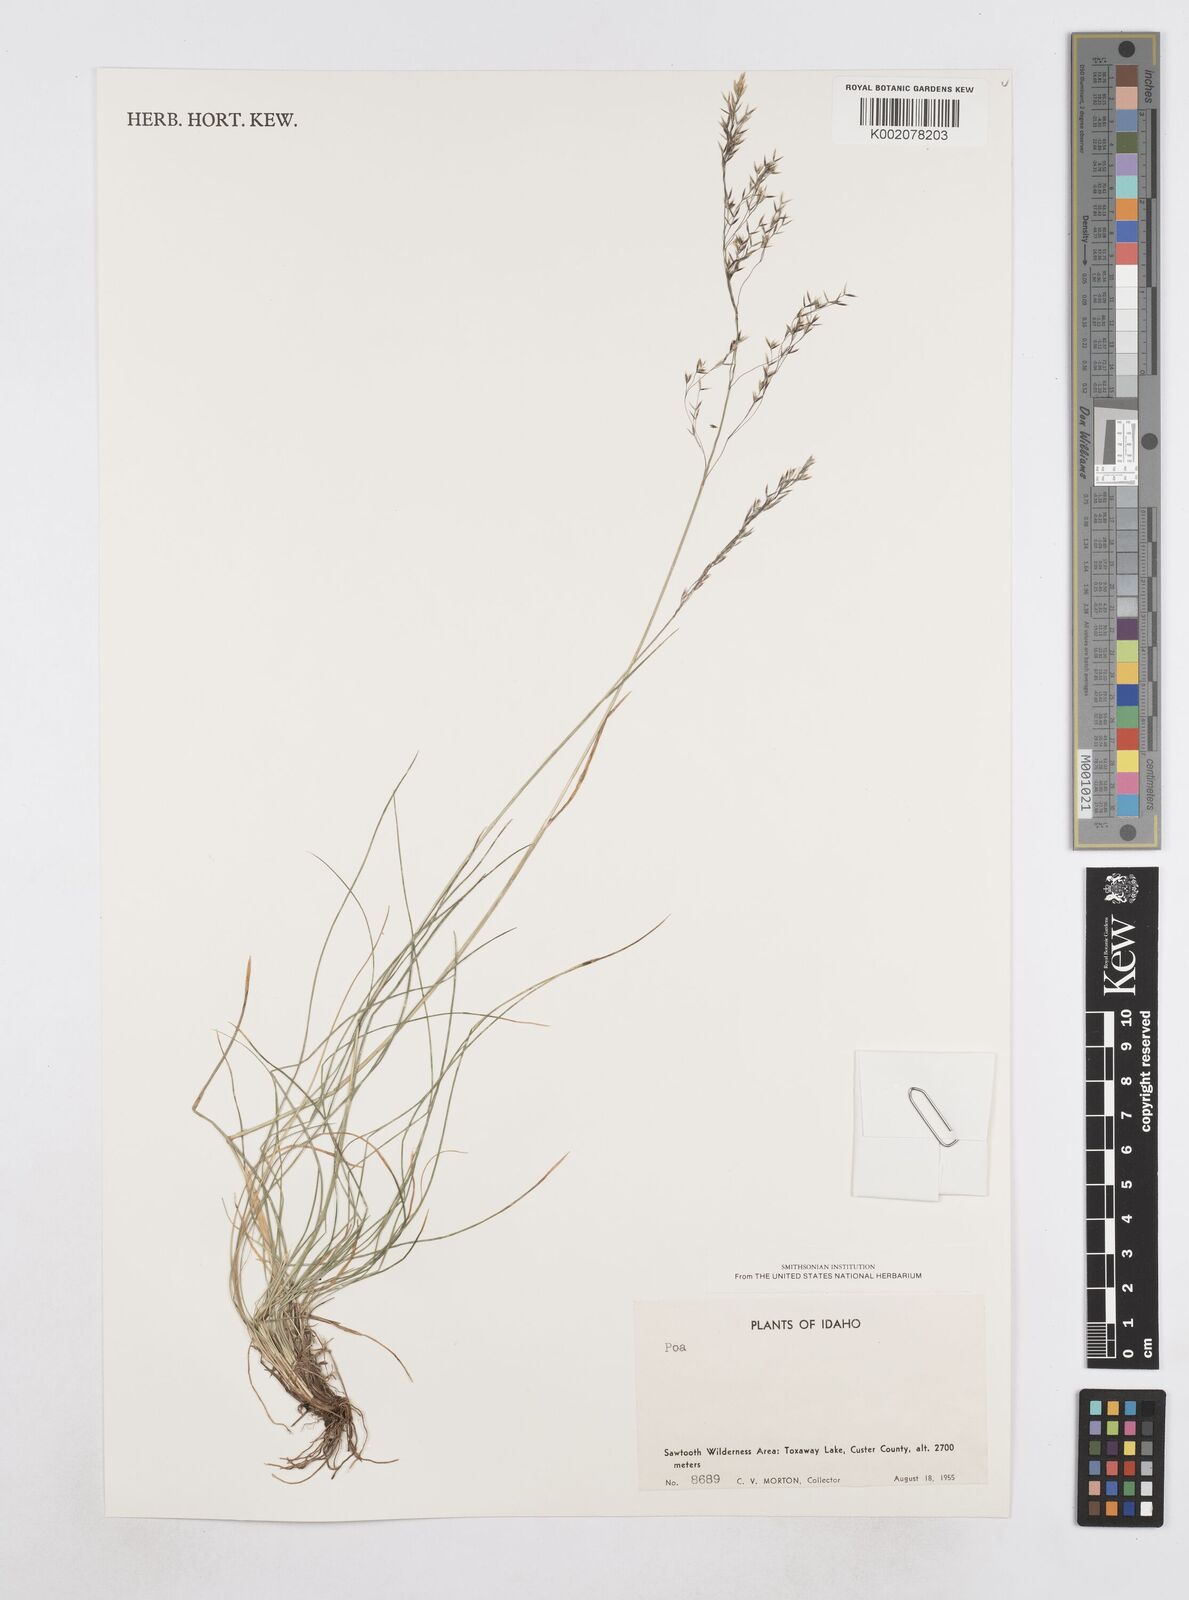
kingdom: Plantae
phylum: Tracheophyta
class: Liliopsida
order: Poales
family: Poaceae
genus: Poa
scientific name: Poa
